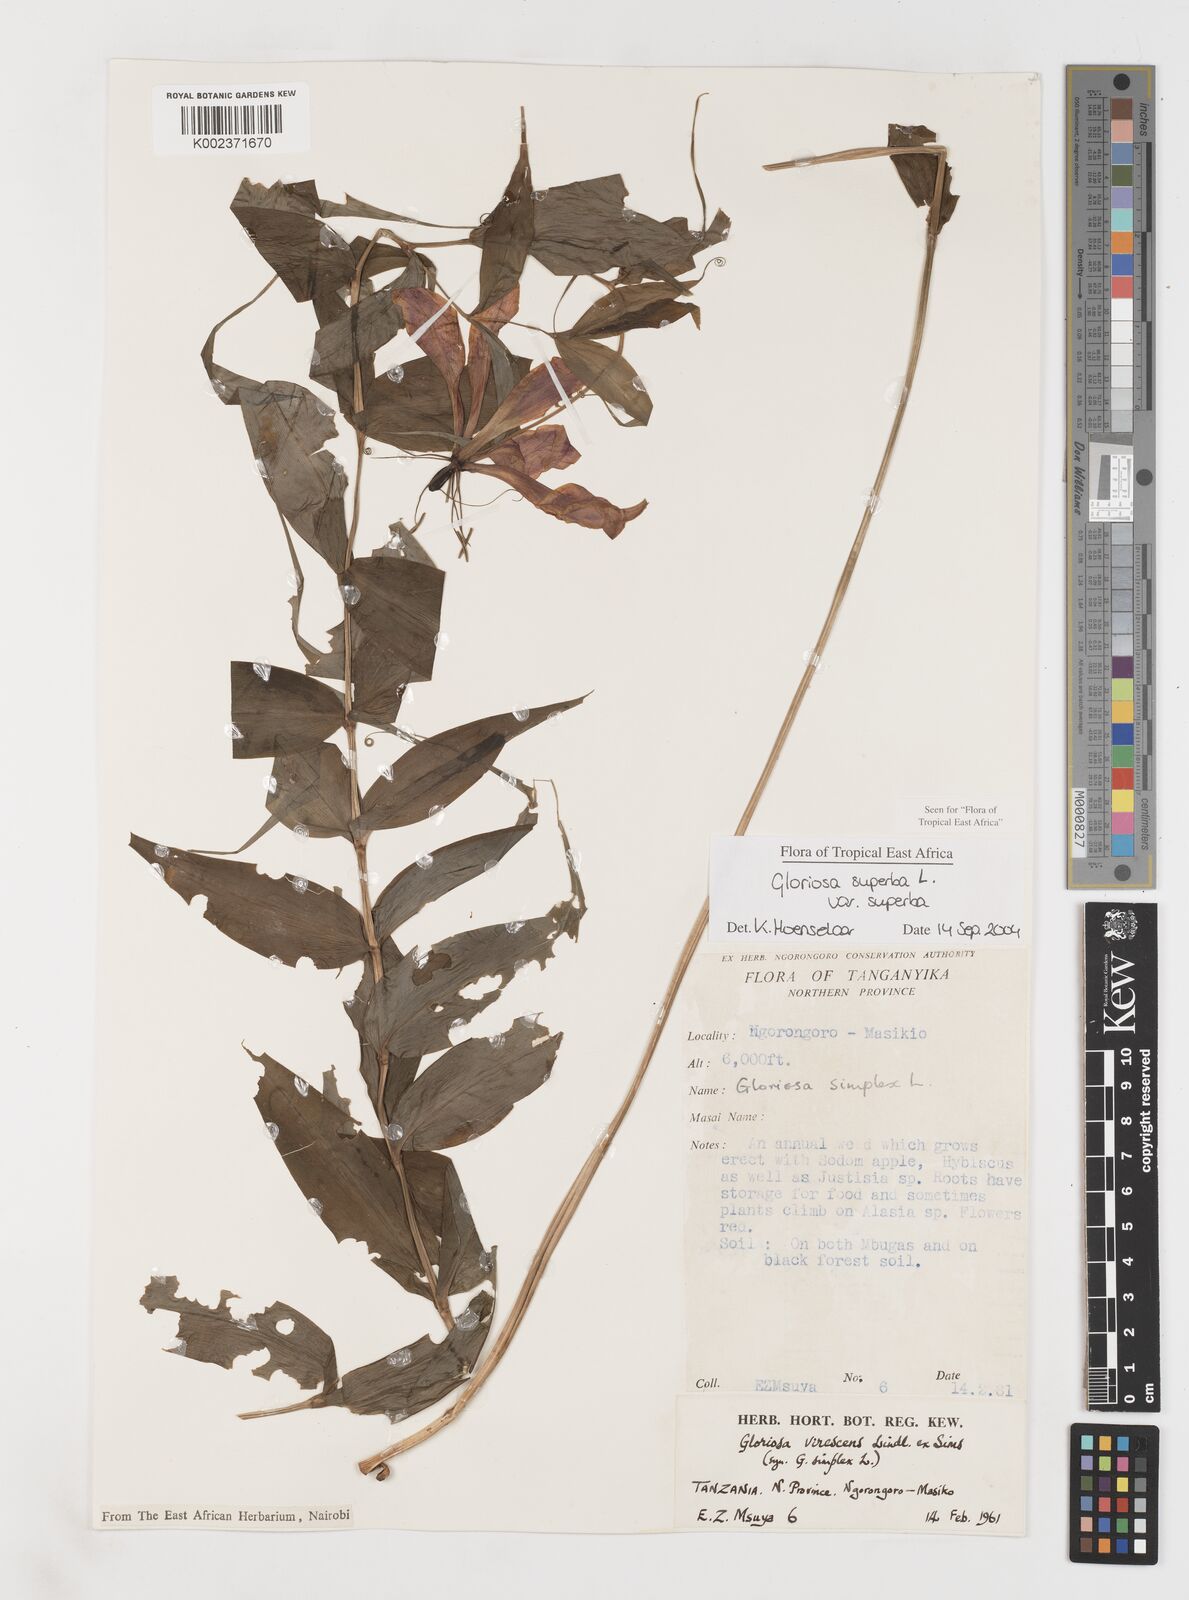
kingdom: Plantae
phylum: Tracheophyta
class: Liliopsida
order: Liliales
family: Colchicaceae
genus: Gloriosa
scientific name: Gloriosa simplex
